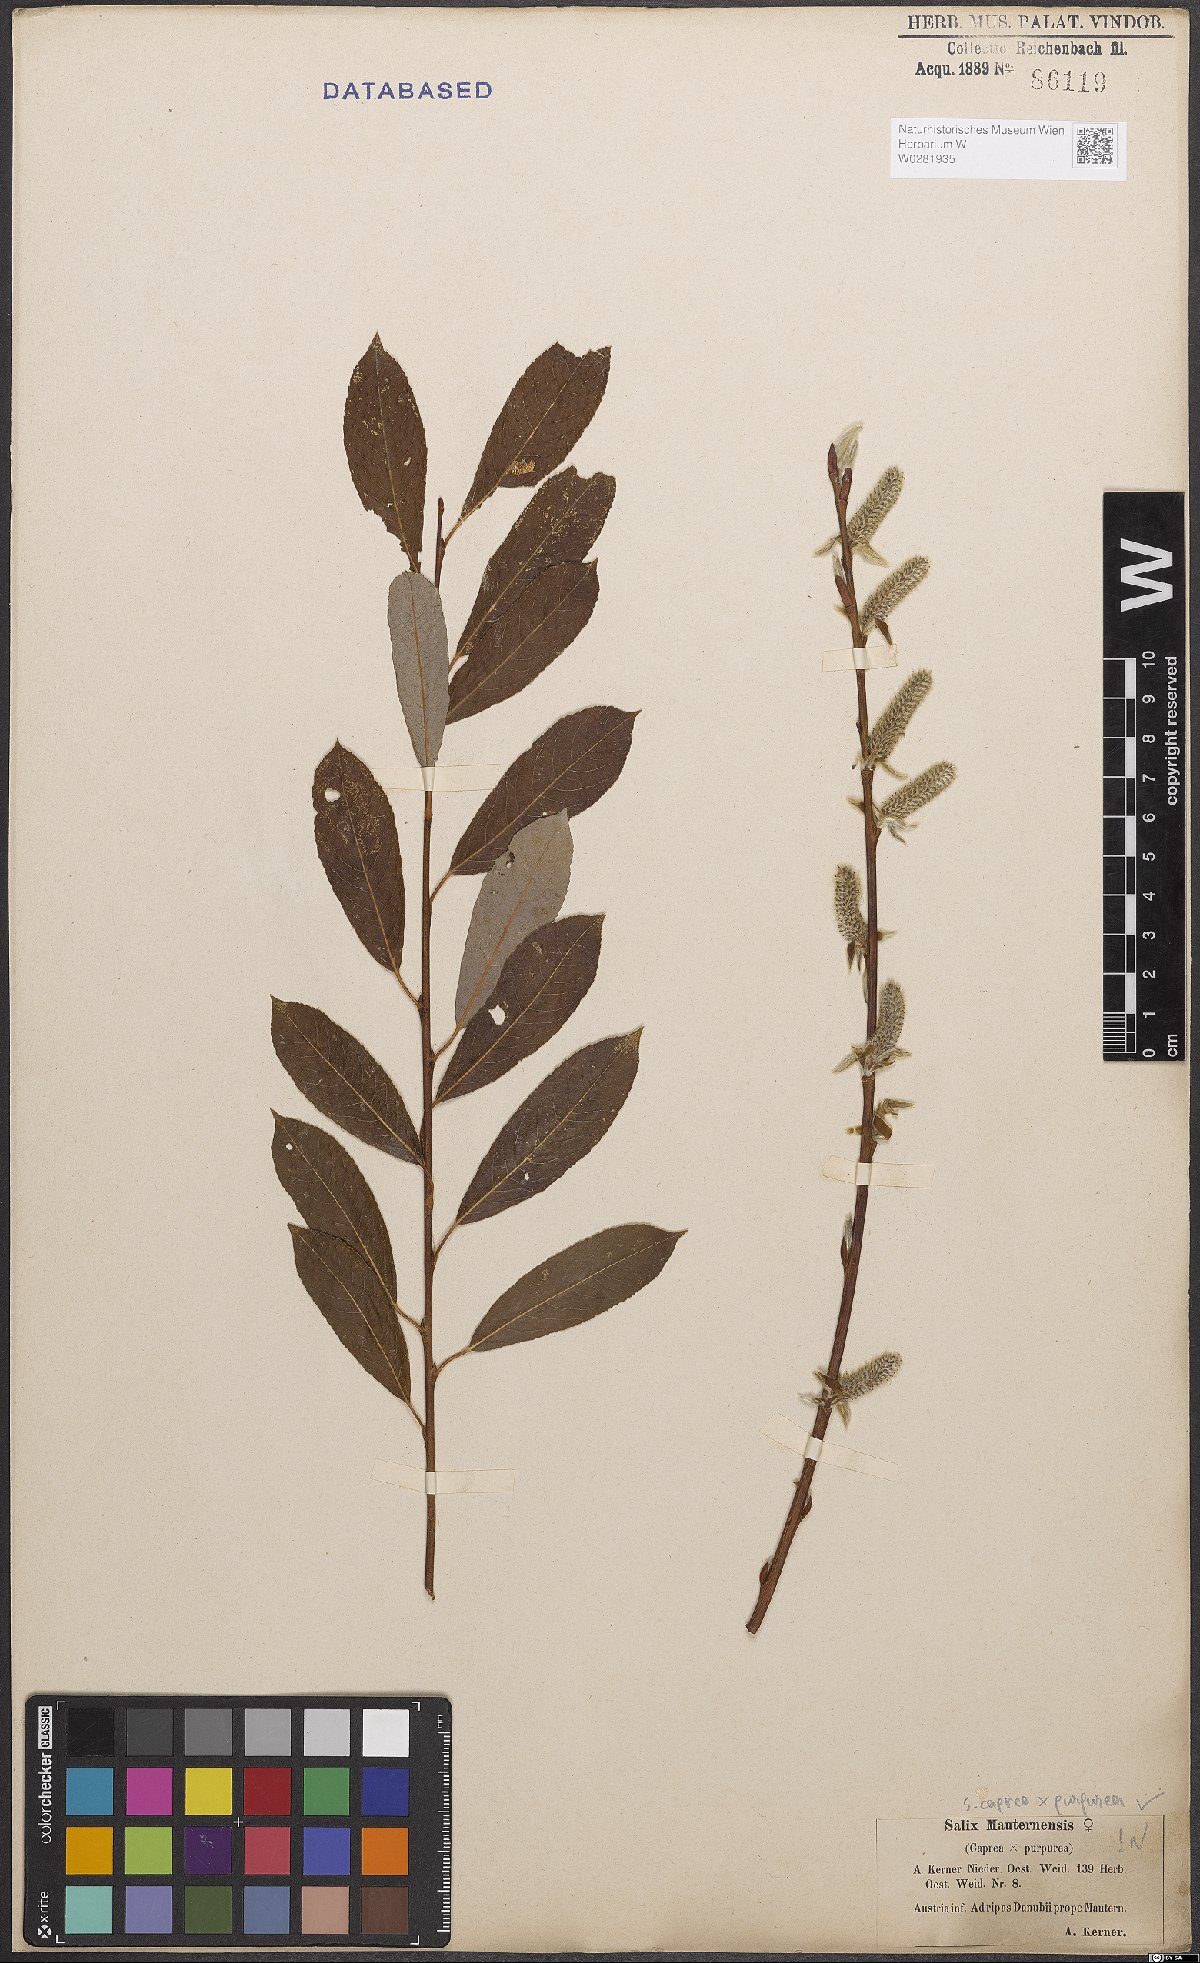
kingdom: Plantae
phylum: Tracheophyta
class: Magnoliopsida
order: Malpighiales
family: Salicaceae
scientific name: Salicaceae
